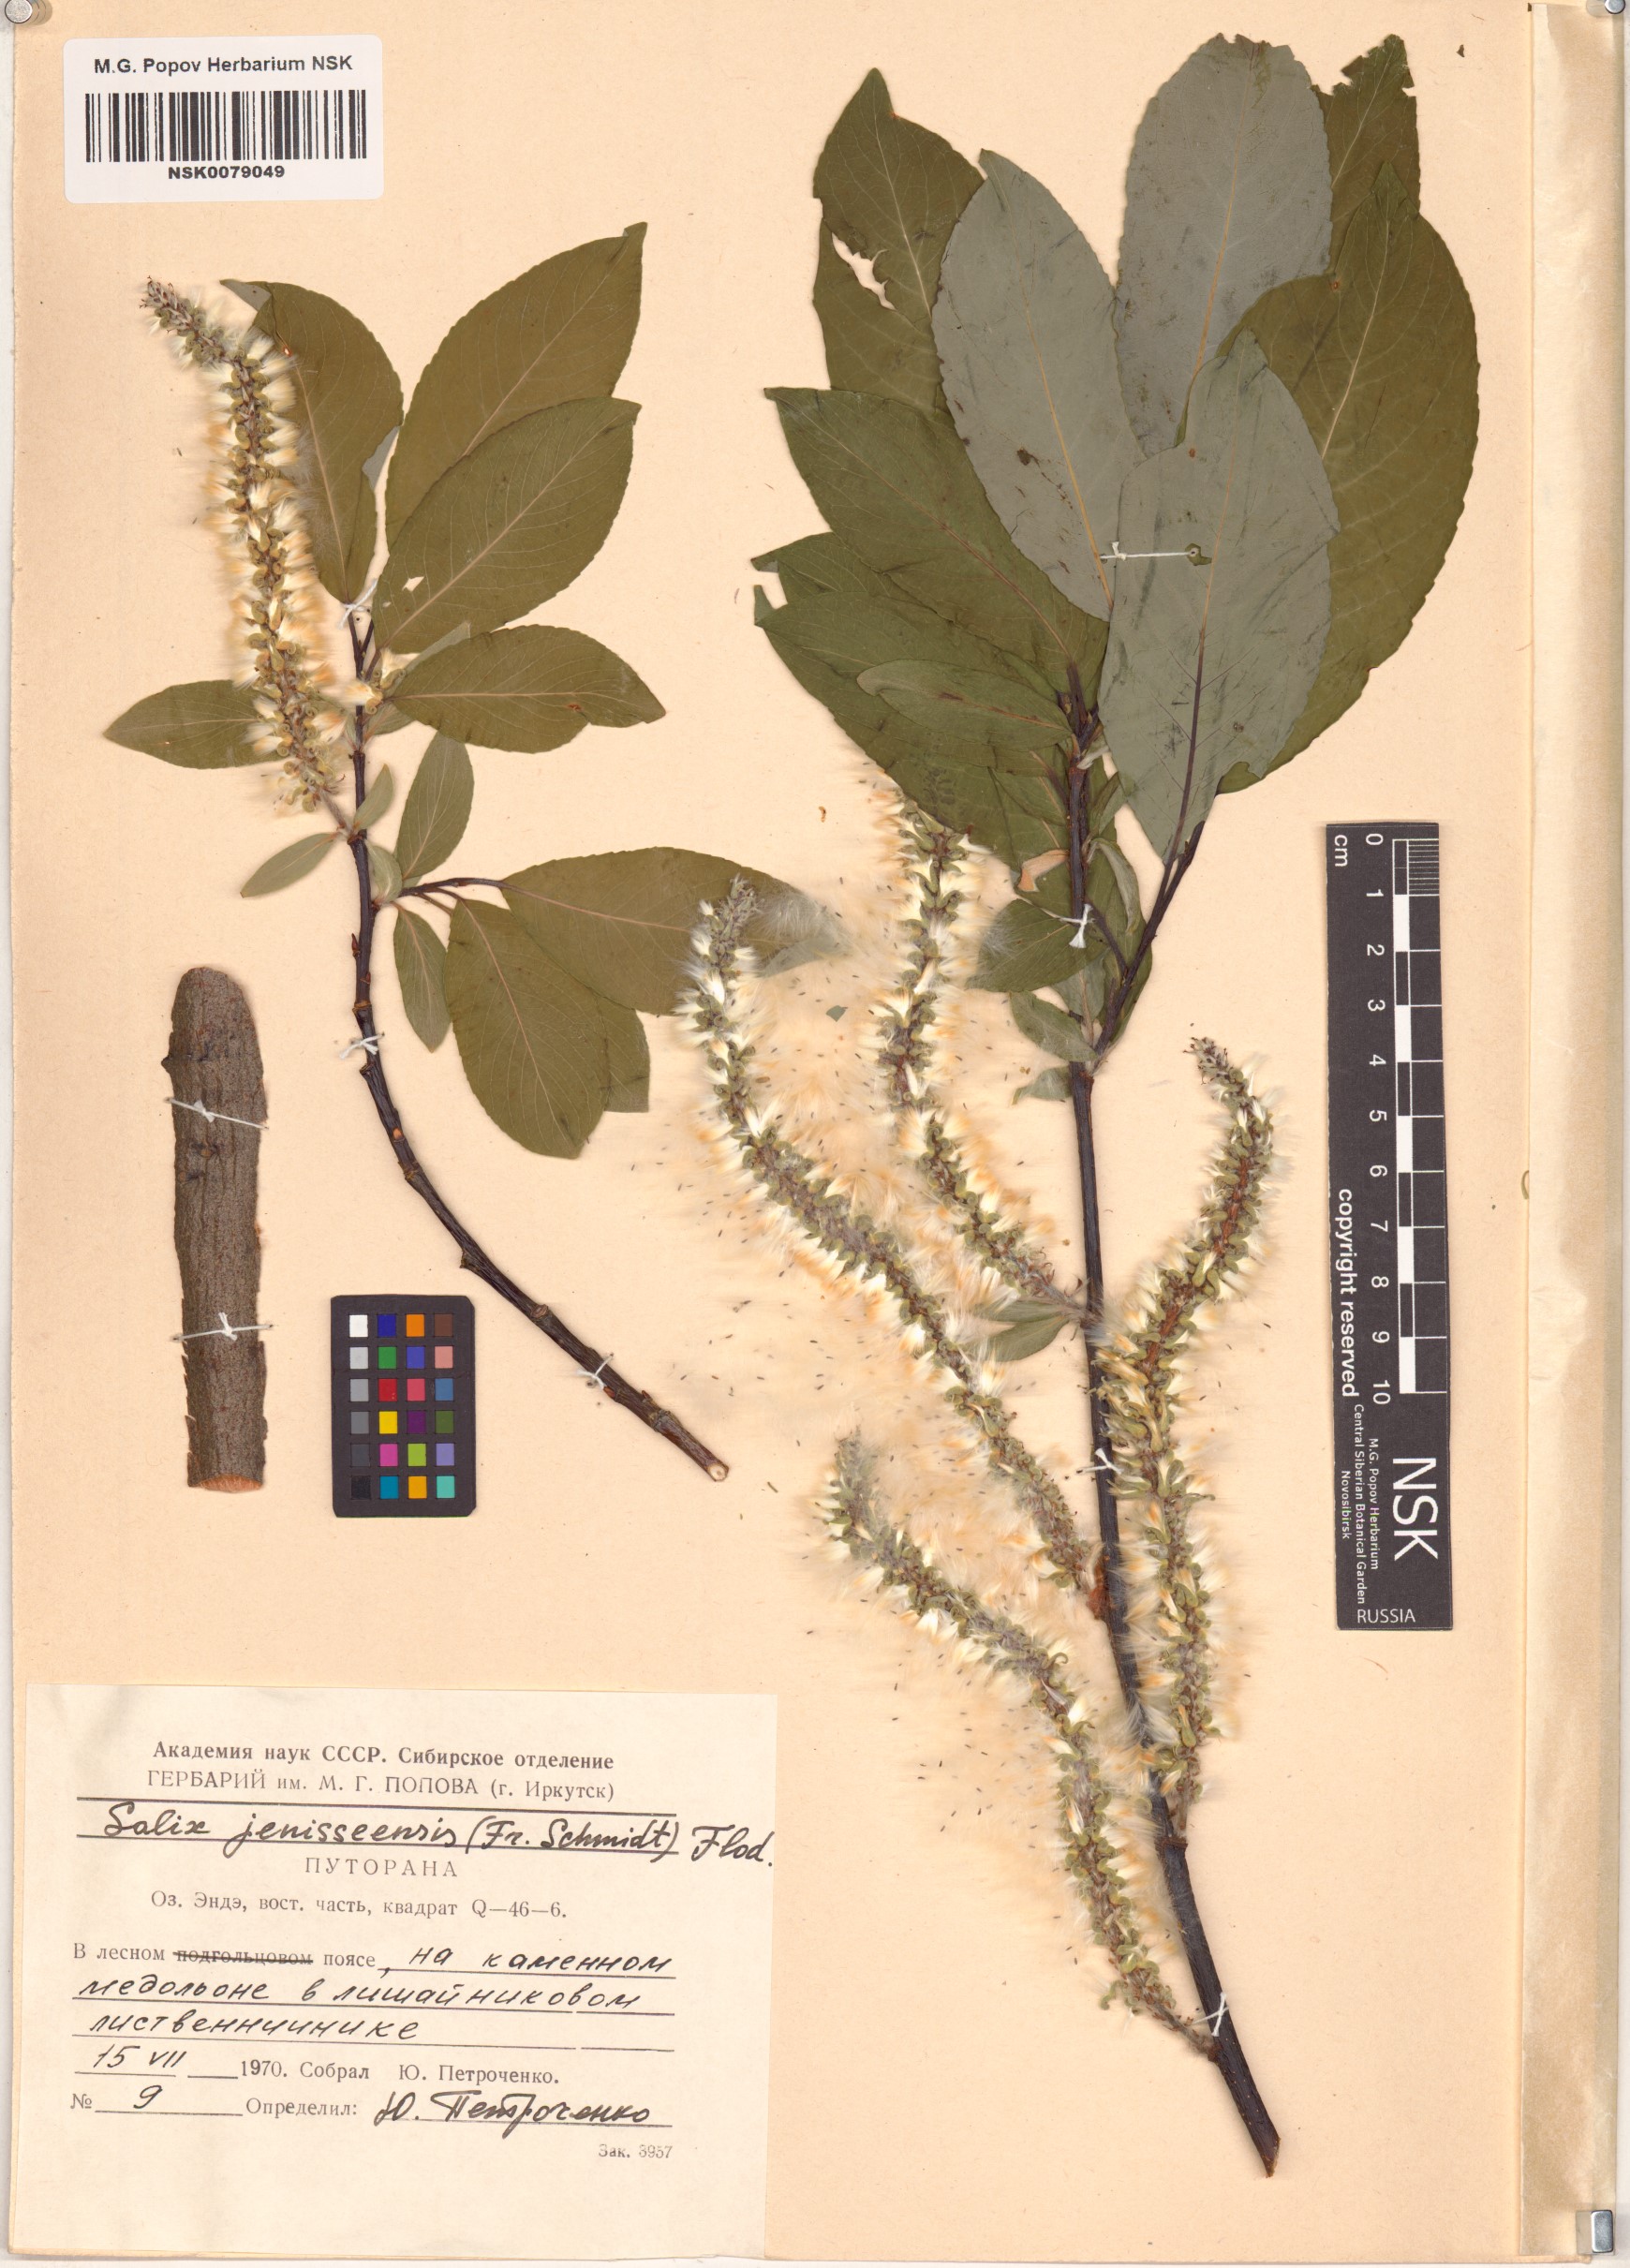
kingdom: Plantae
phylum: Tracheophyta
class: Magnoliopsida
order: Malpighiales
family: Salicaceae
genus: Salix
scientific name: Salix jenisseensis
